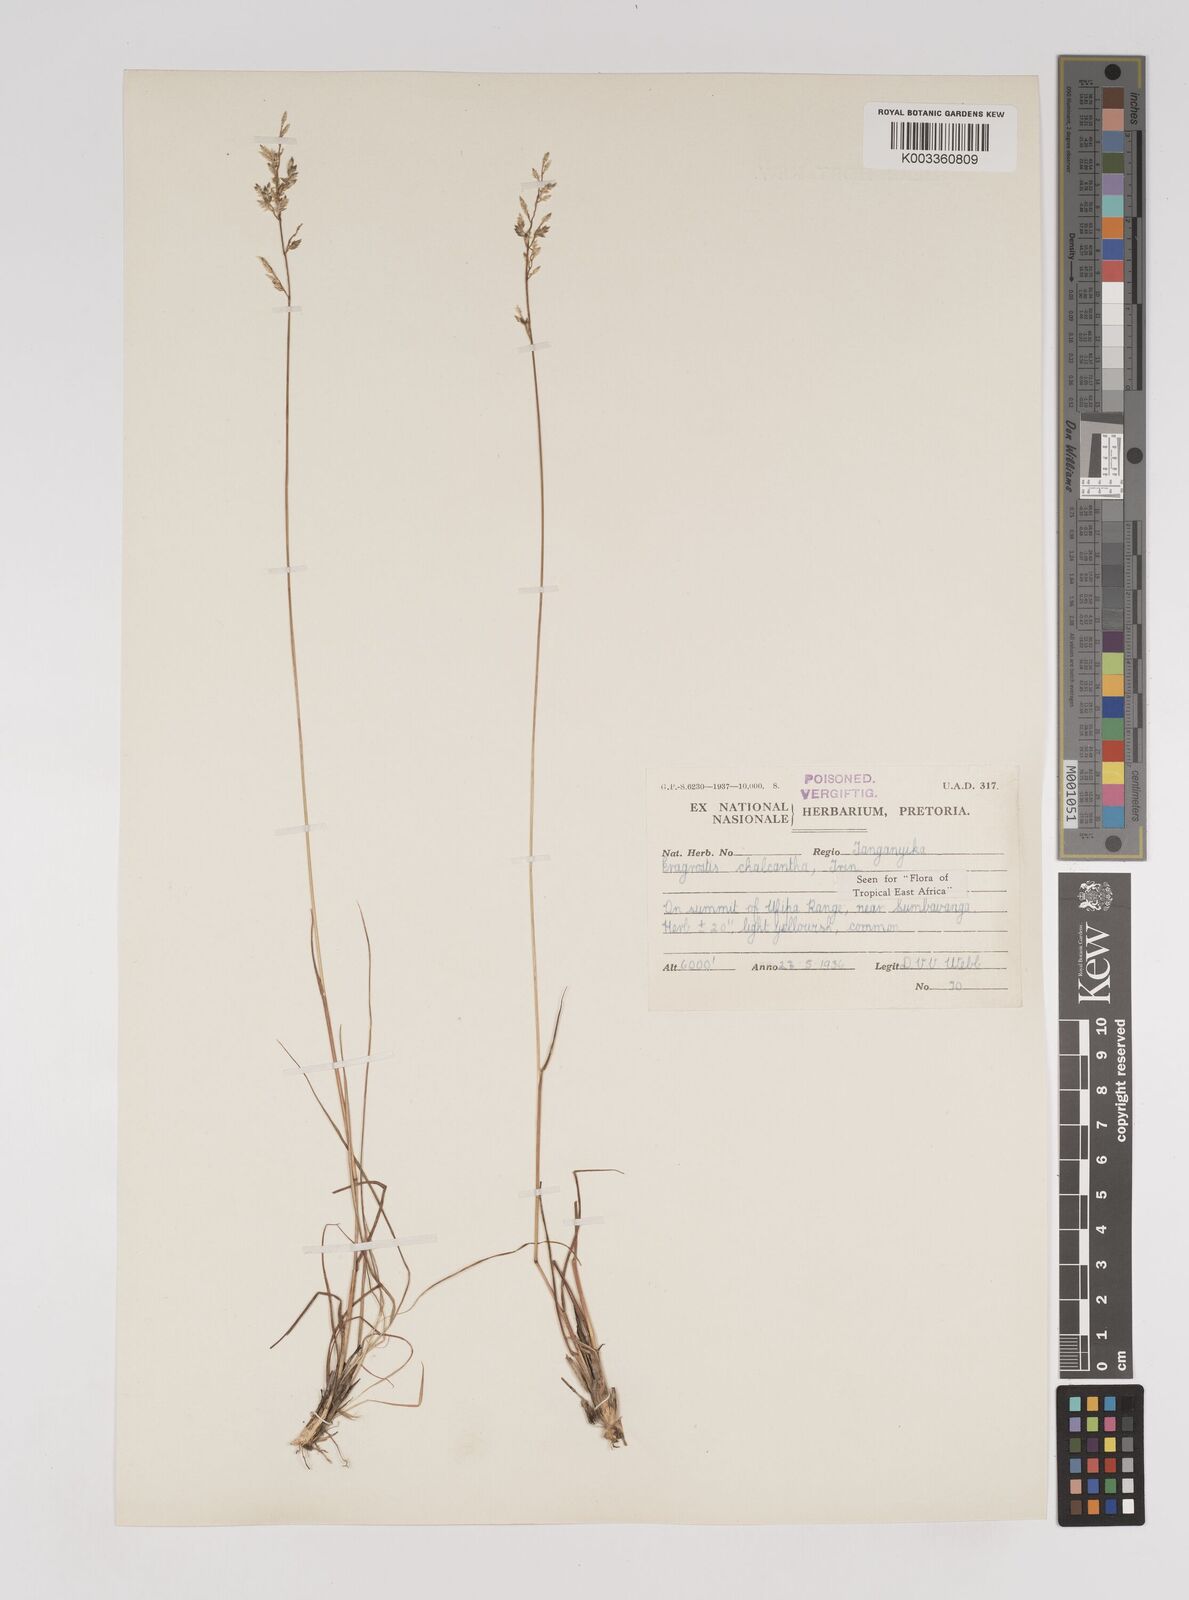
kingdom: Plantae
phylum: Tracheophyta
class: Liliopsida
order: Poales
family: Poaceae
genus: Eragrostis
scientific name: Eragrostis racemosa
